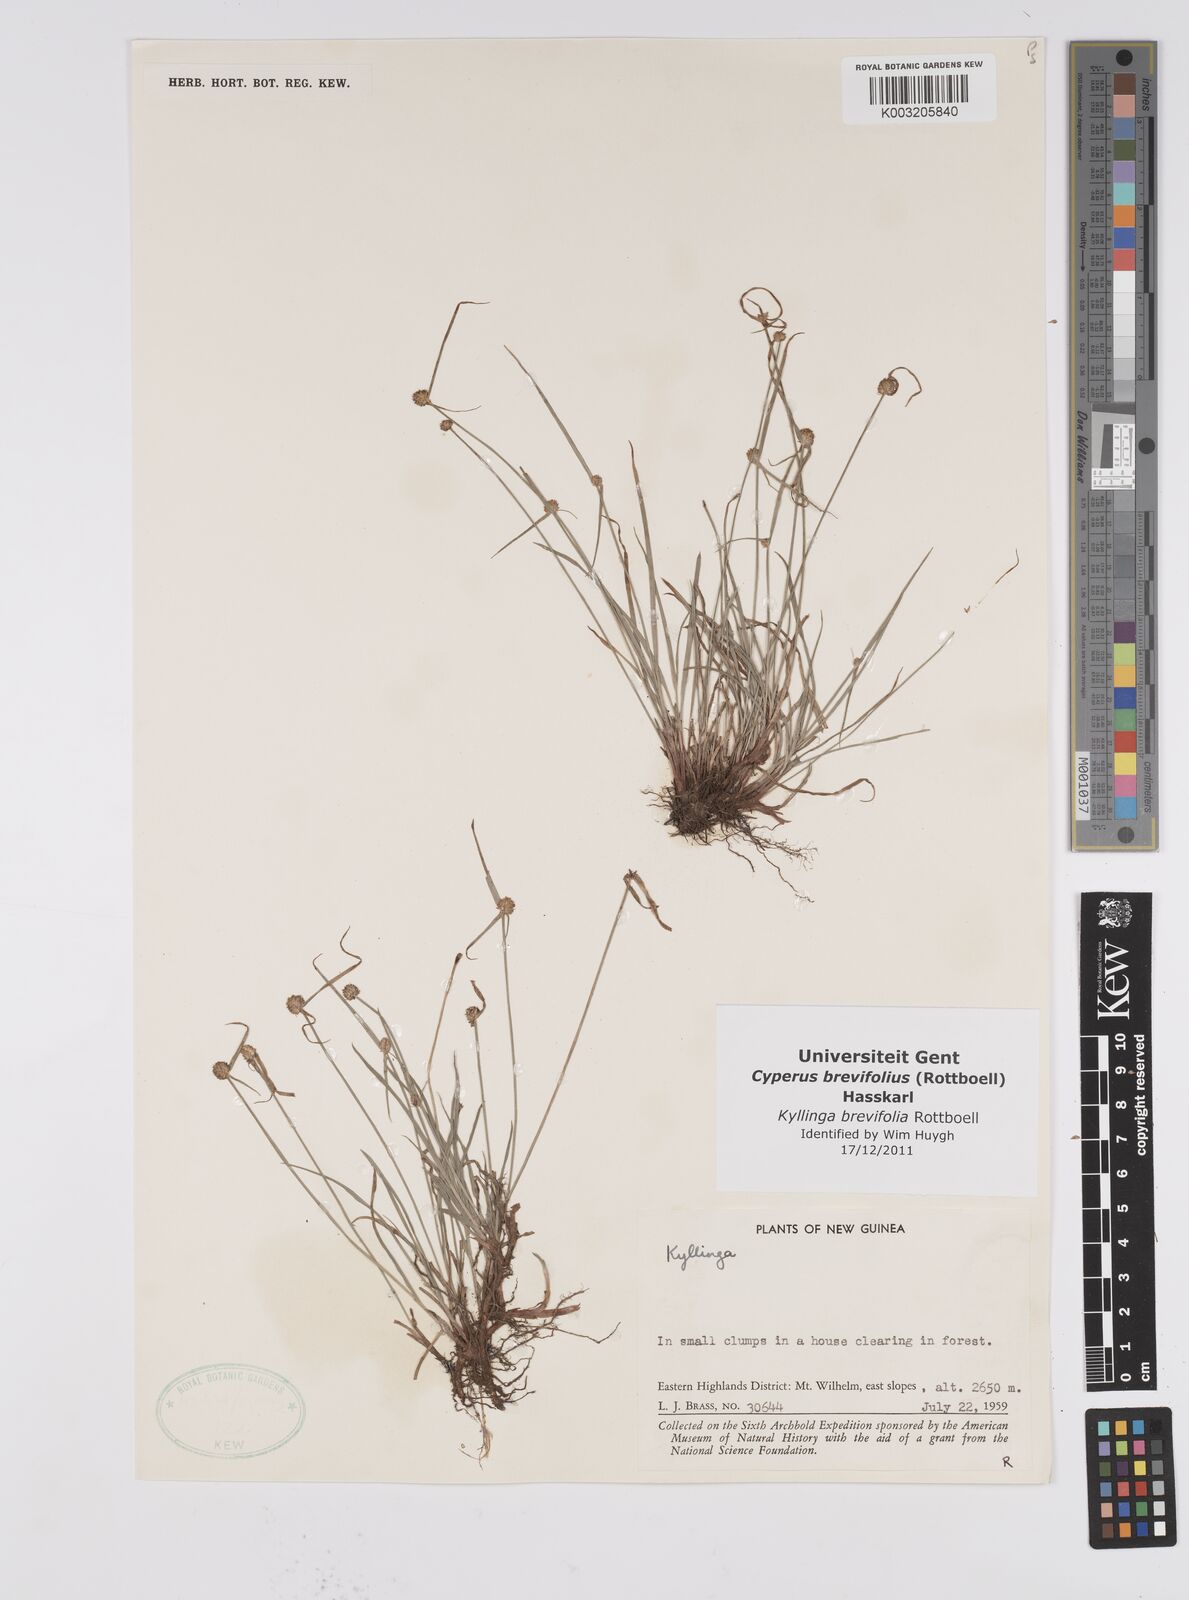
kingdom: Plantae
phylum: Tracheophyta
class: Liliopsida
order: Poales
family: Cyperaceae
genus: Cyperus
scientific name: Cyperus brevifolius
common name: Globe kyllinga
